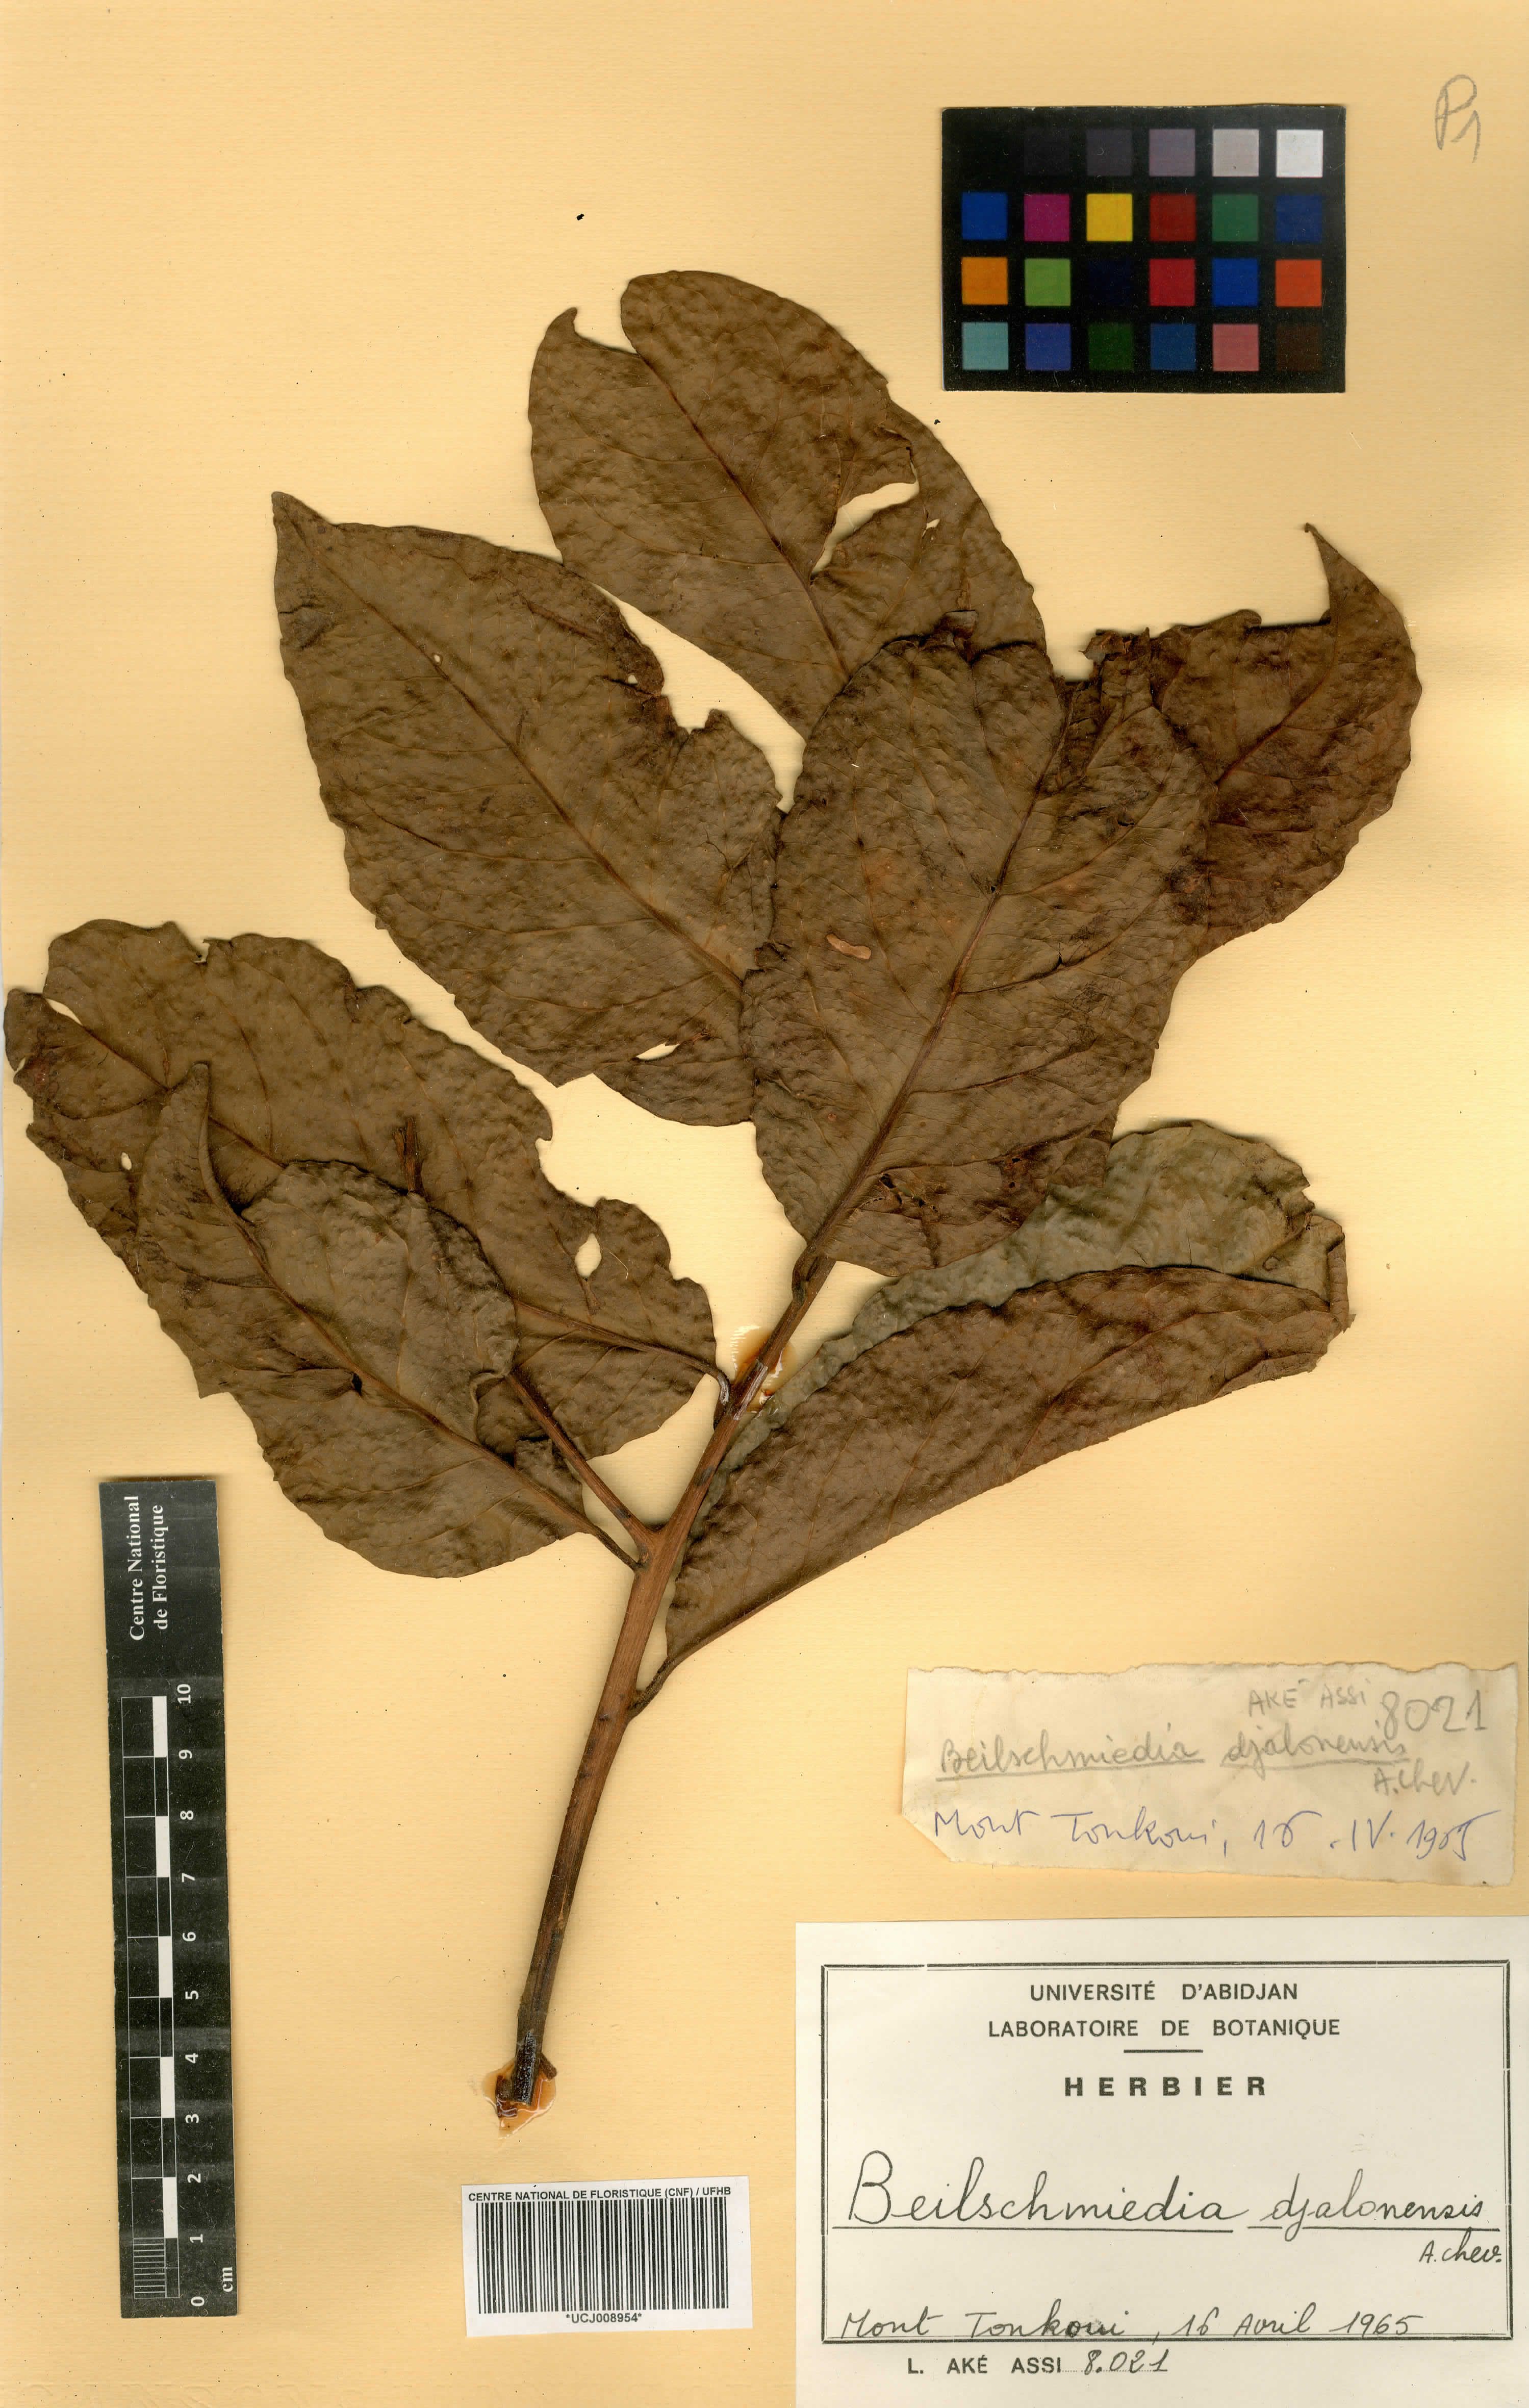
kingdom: Plantae
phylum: Tracheophyta
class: Magnoliopsida
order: Laurales
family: Lauraceae
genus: Beilschmiedia
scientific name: Beilschmiedia djalonensis
